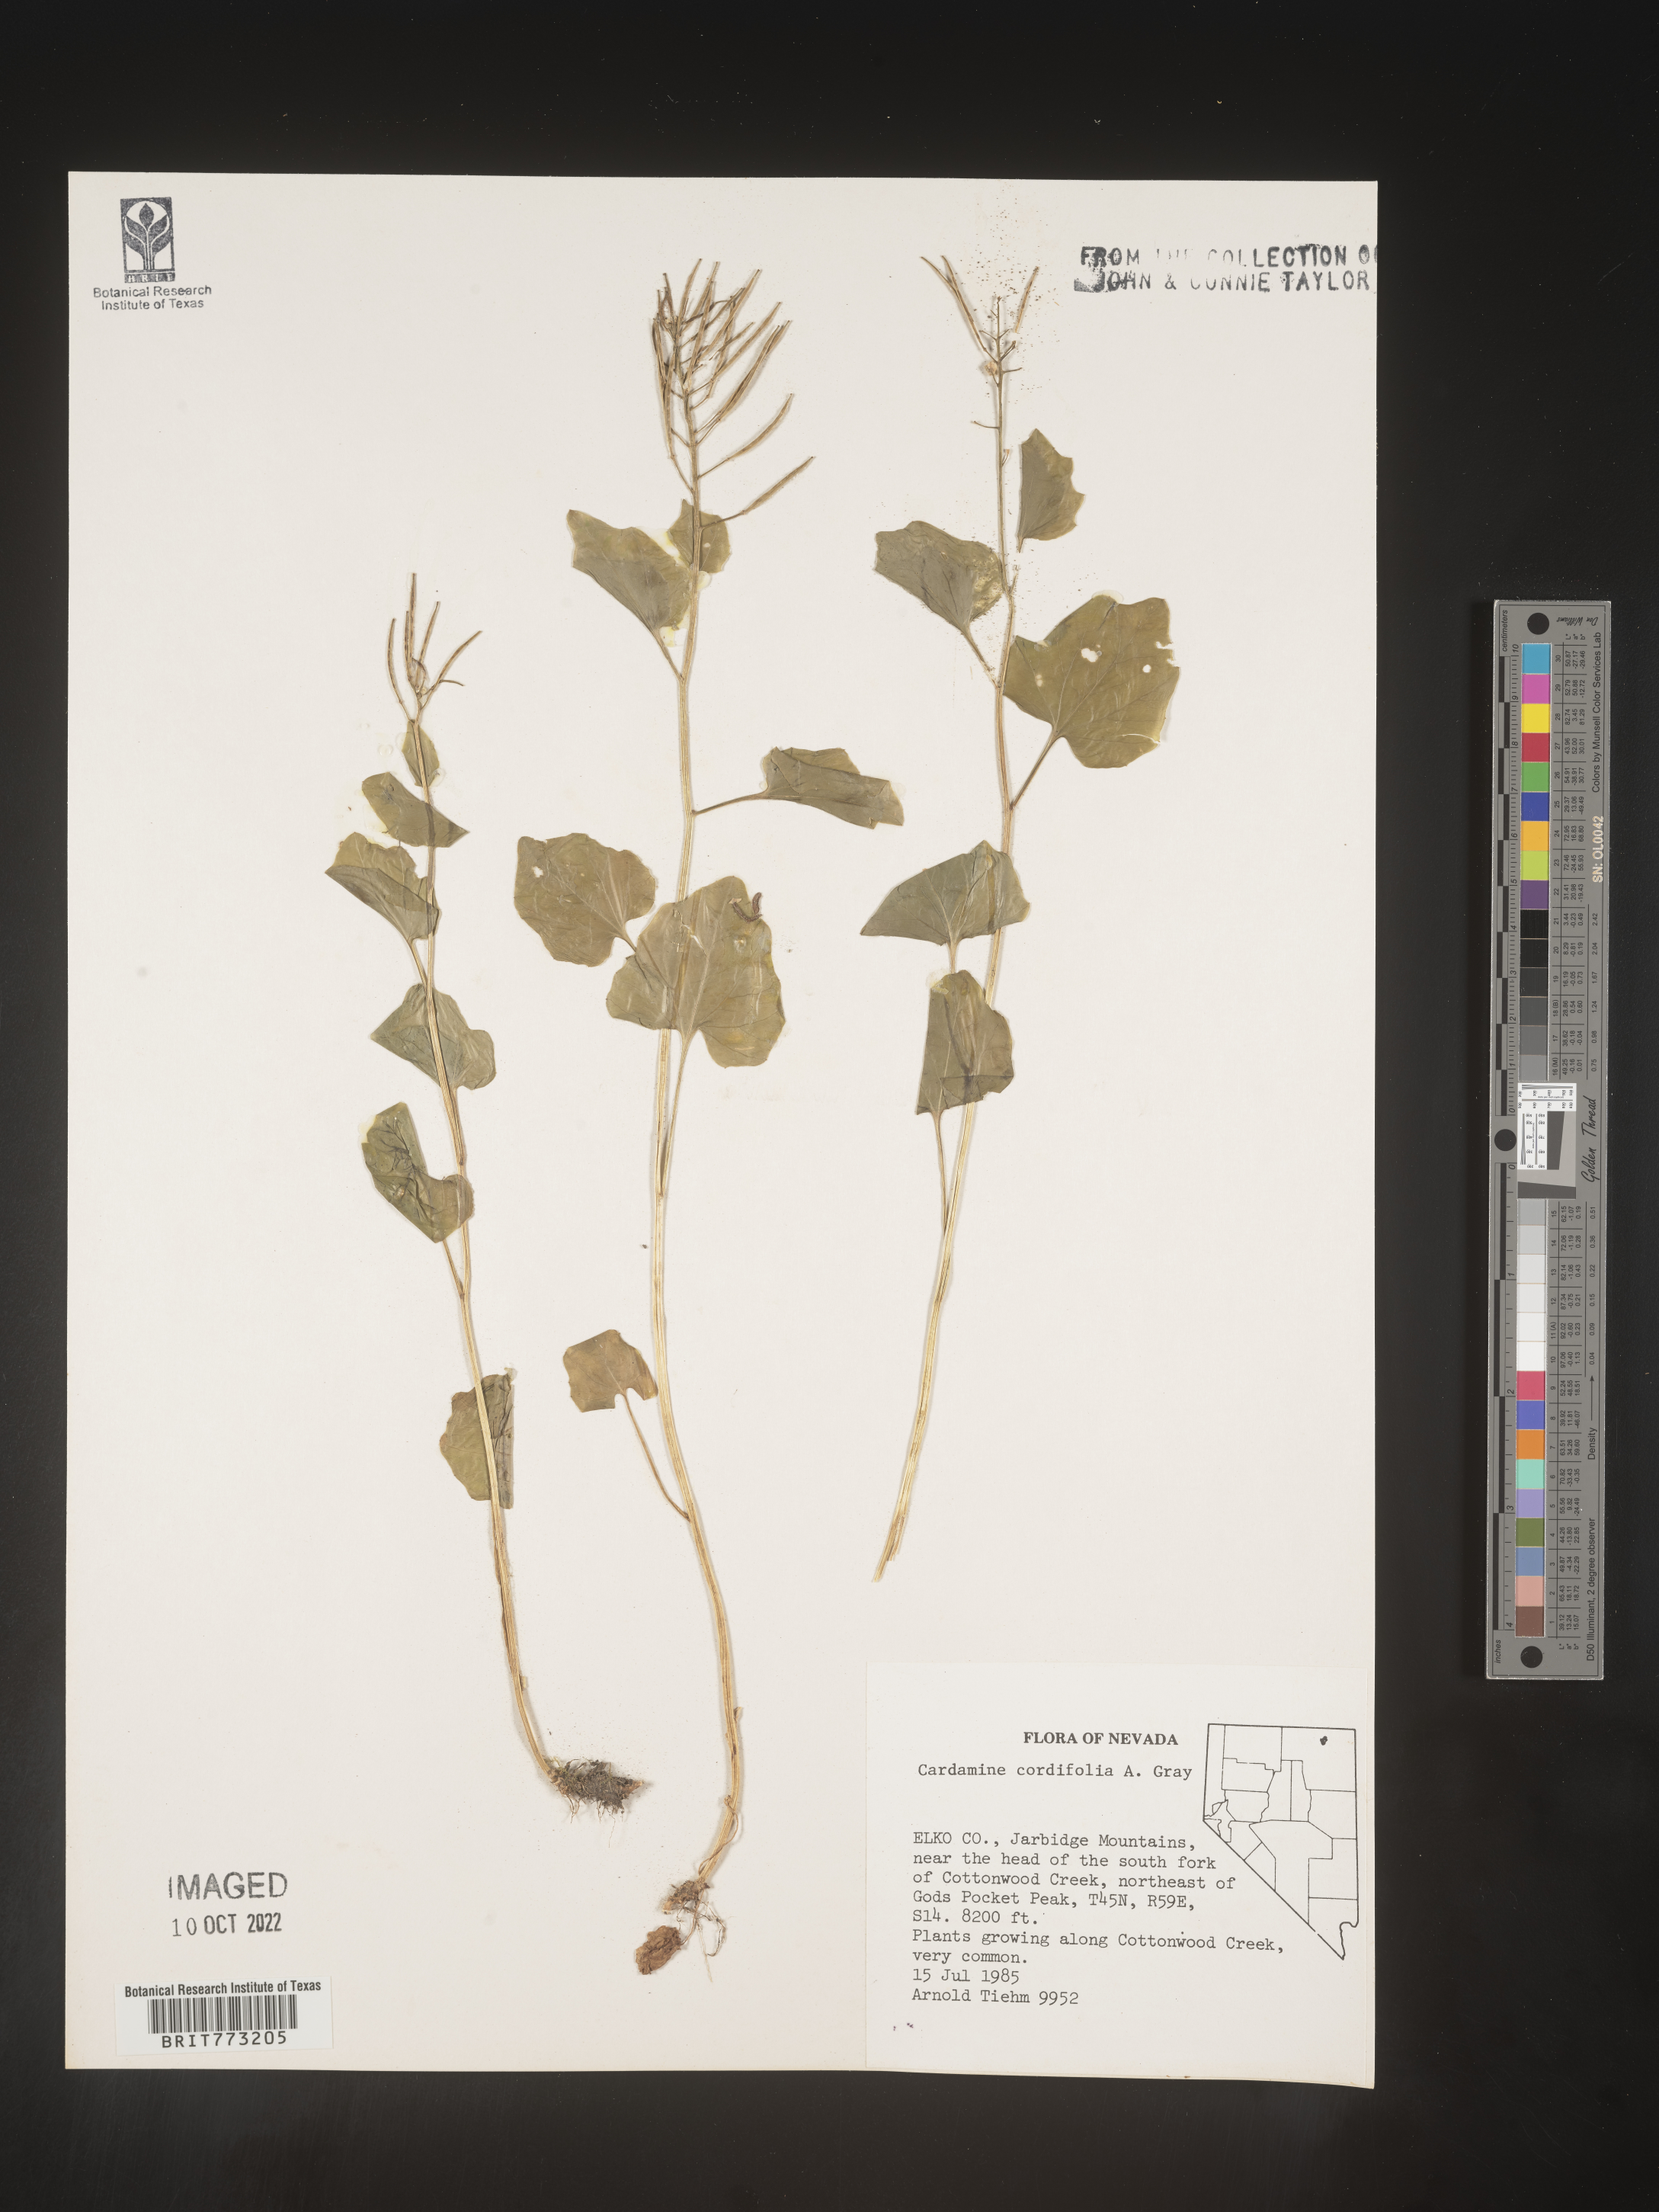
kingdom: Plantae
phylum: Tracheophyta
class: Magnoliopsida
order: Brassicales
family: Brassicaceae
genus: Cardamine
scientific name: Cardamine
